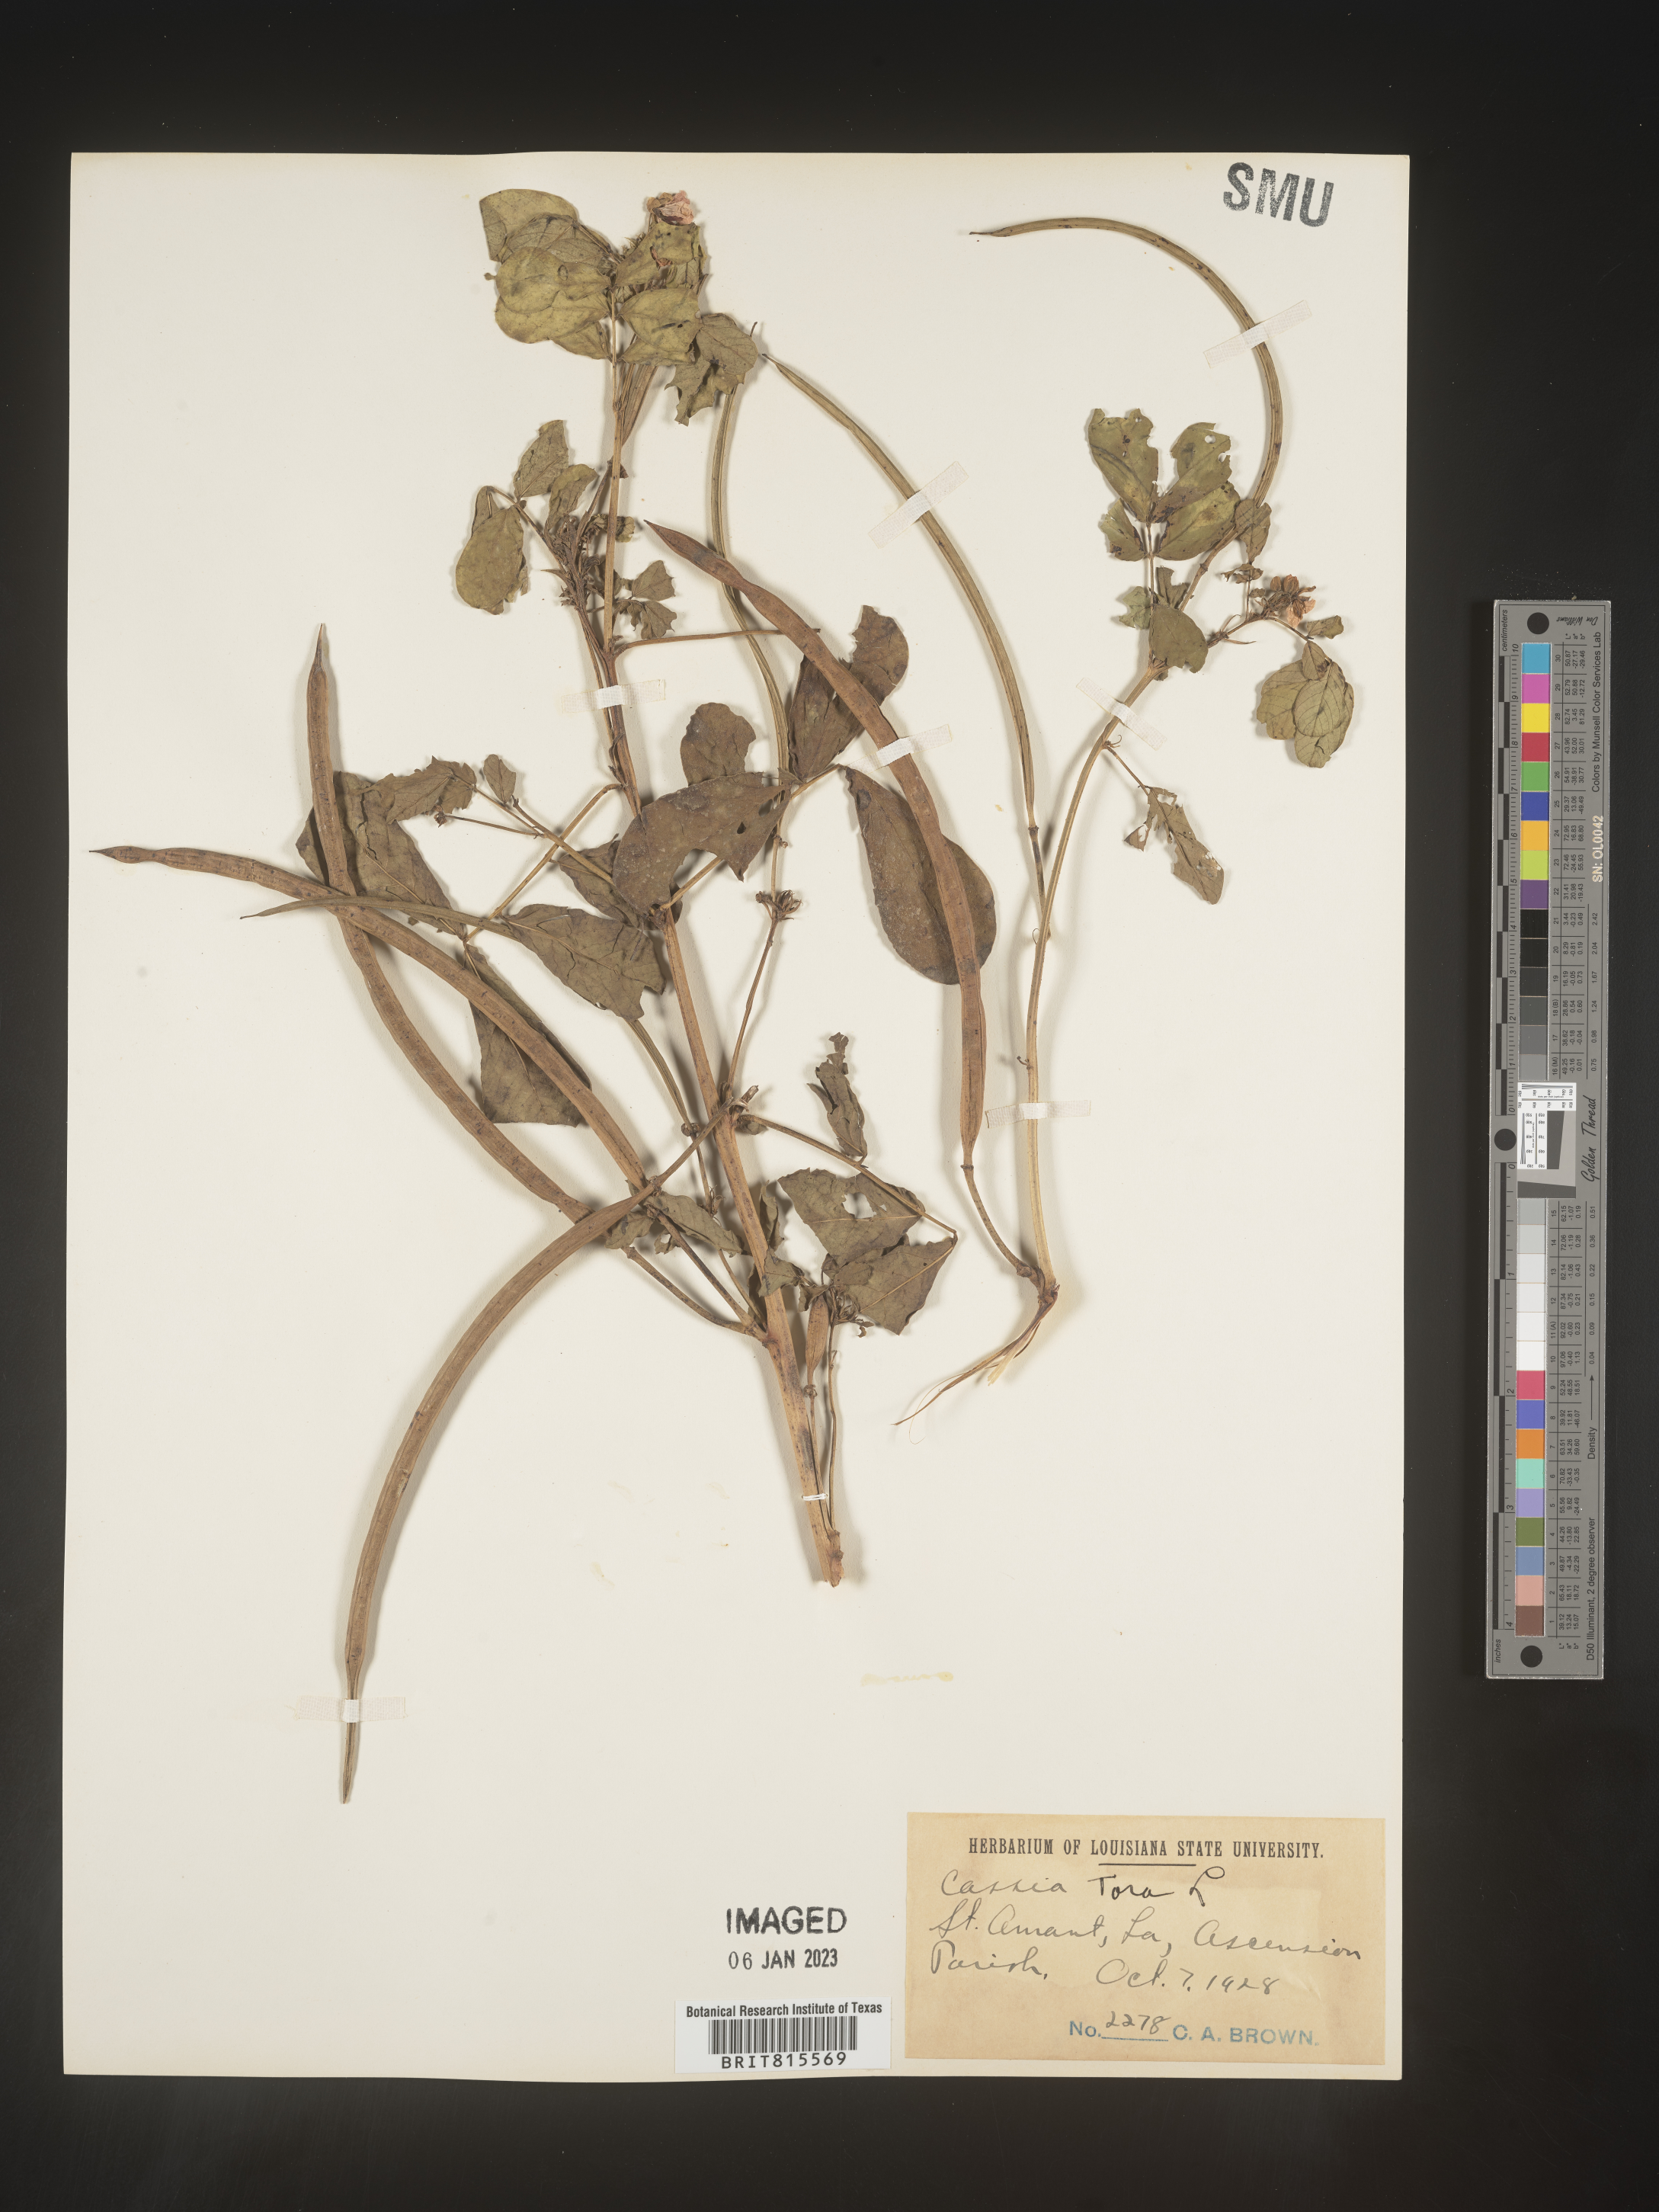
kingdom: Plantae
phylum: Tracheophyta
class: Magnoliopsida
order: Fabales
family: Fabaceae
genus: Senna
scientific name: Senna tora
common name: Sickle senna
